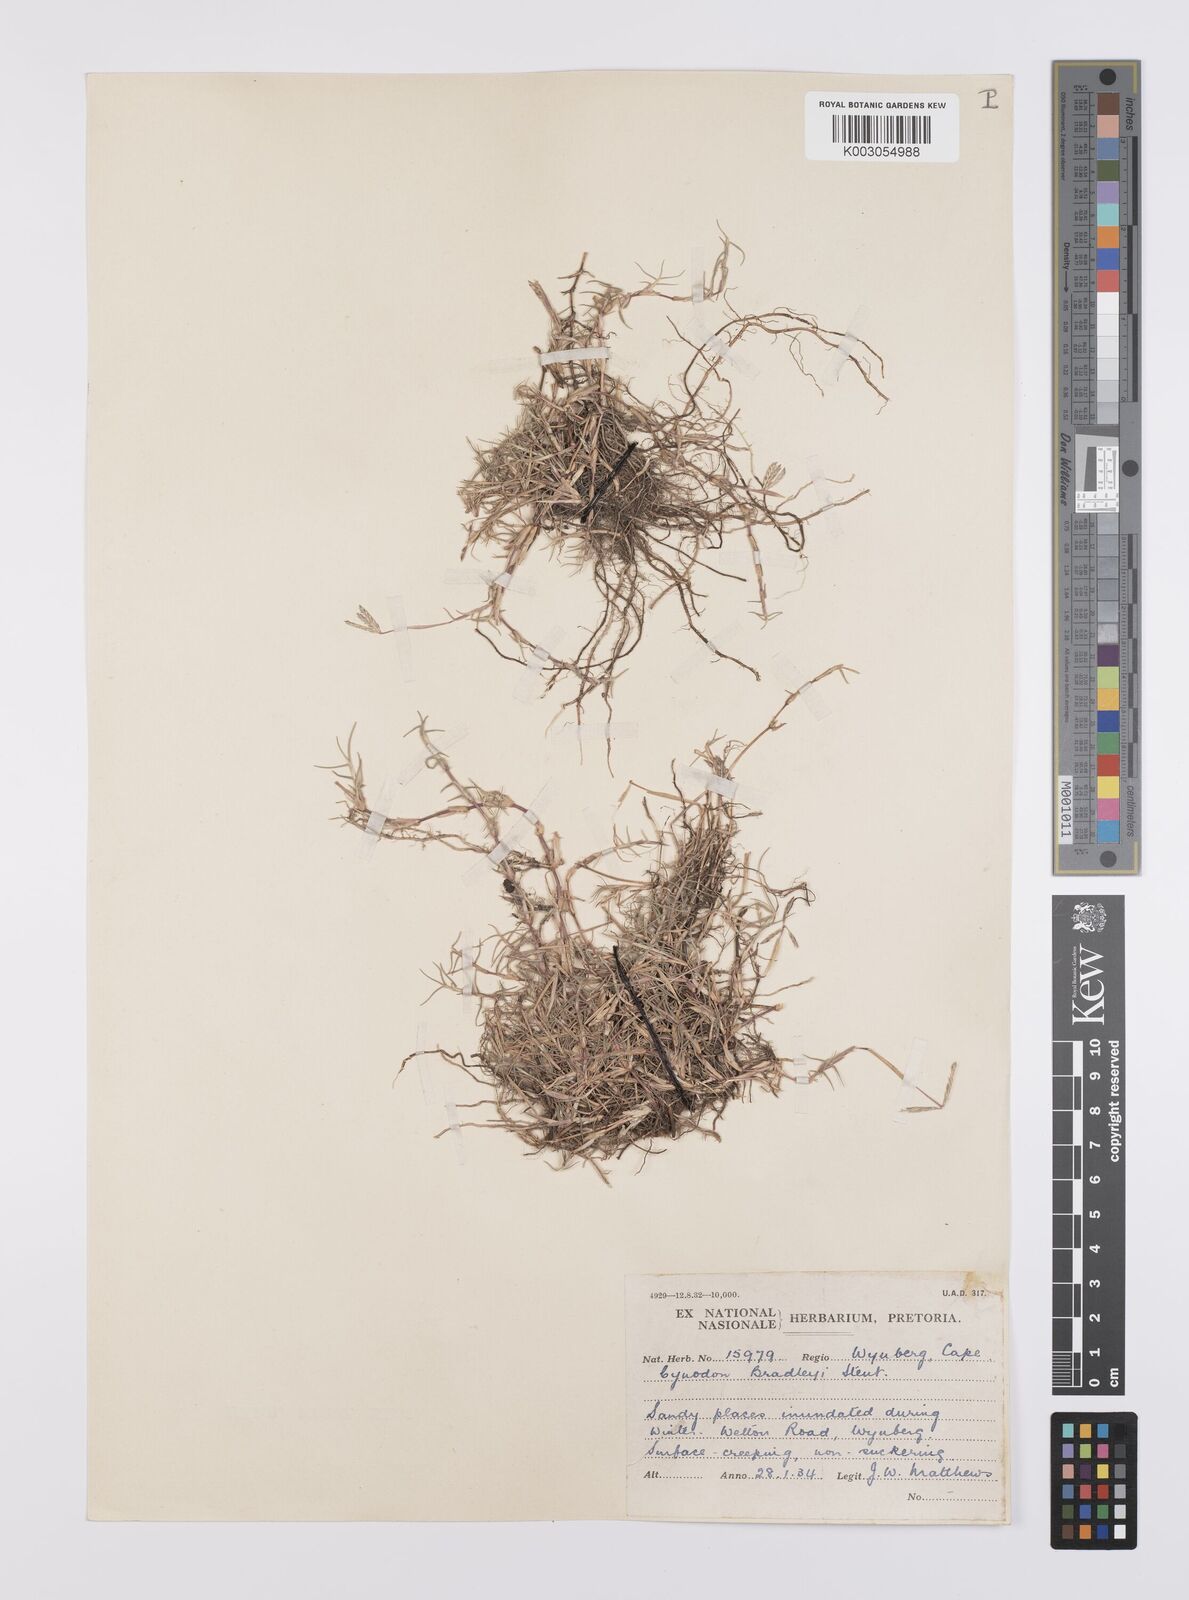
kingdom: Plantae
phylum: Tracheophyta
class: Liliopsida
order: Poales
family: Poaceae
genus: Cynodon
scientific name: Cynodon incompletus
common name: African bermuda-grass
